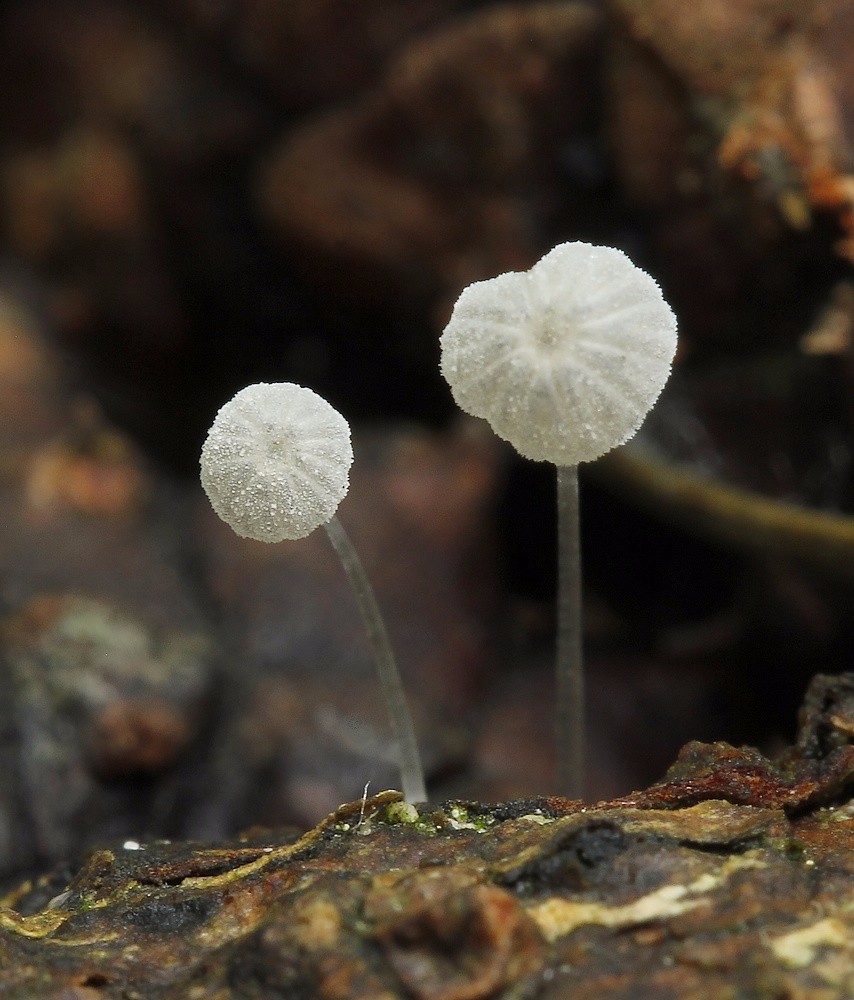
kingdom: Fungi
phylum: Basidiomycota
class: Agaricomycetes
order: Agaricales
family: Mycenaceae
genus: Mycena
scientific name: Mycena tenerrima
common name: pudret huesvamp
